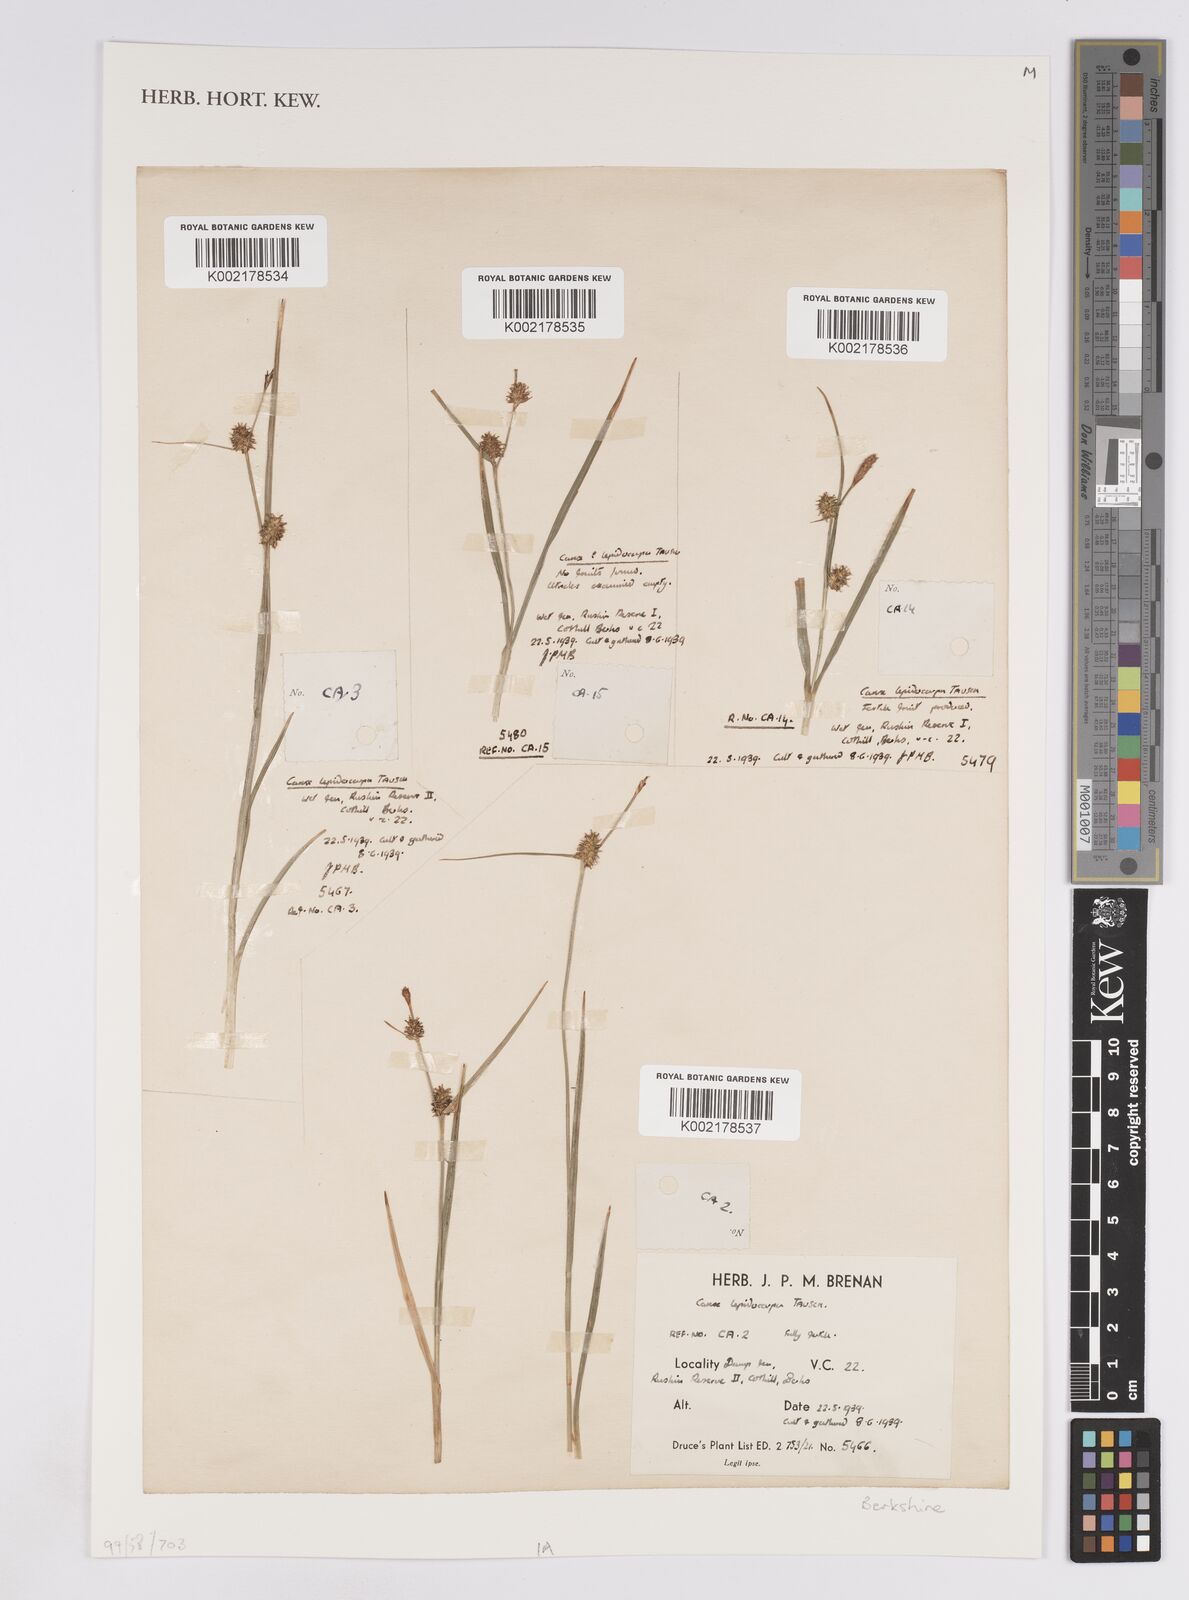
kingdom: Plantae
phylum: Tracheophyta
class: Liliopsida
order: Poales
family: Cyperaceae
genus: Carex
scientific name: Carex lepidocarpa
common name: Long-stalked yellow-sedge
